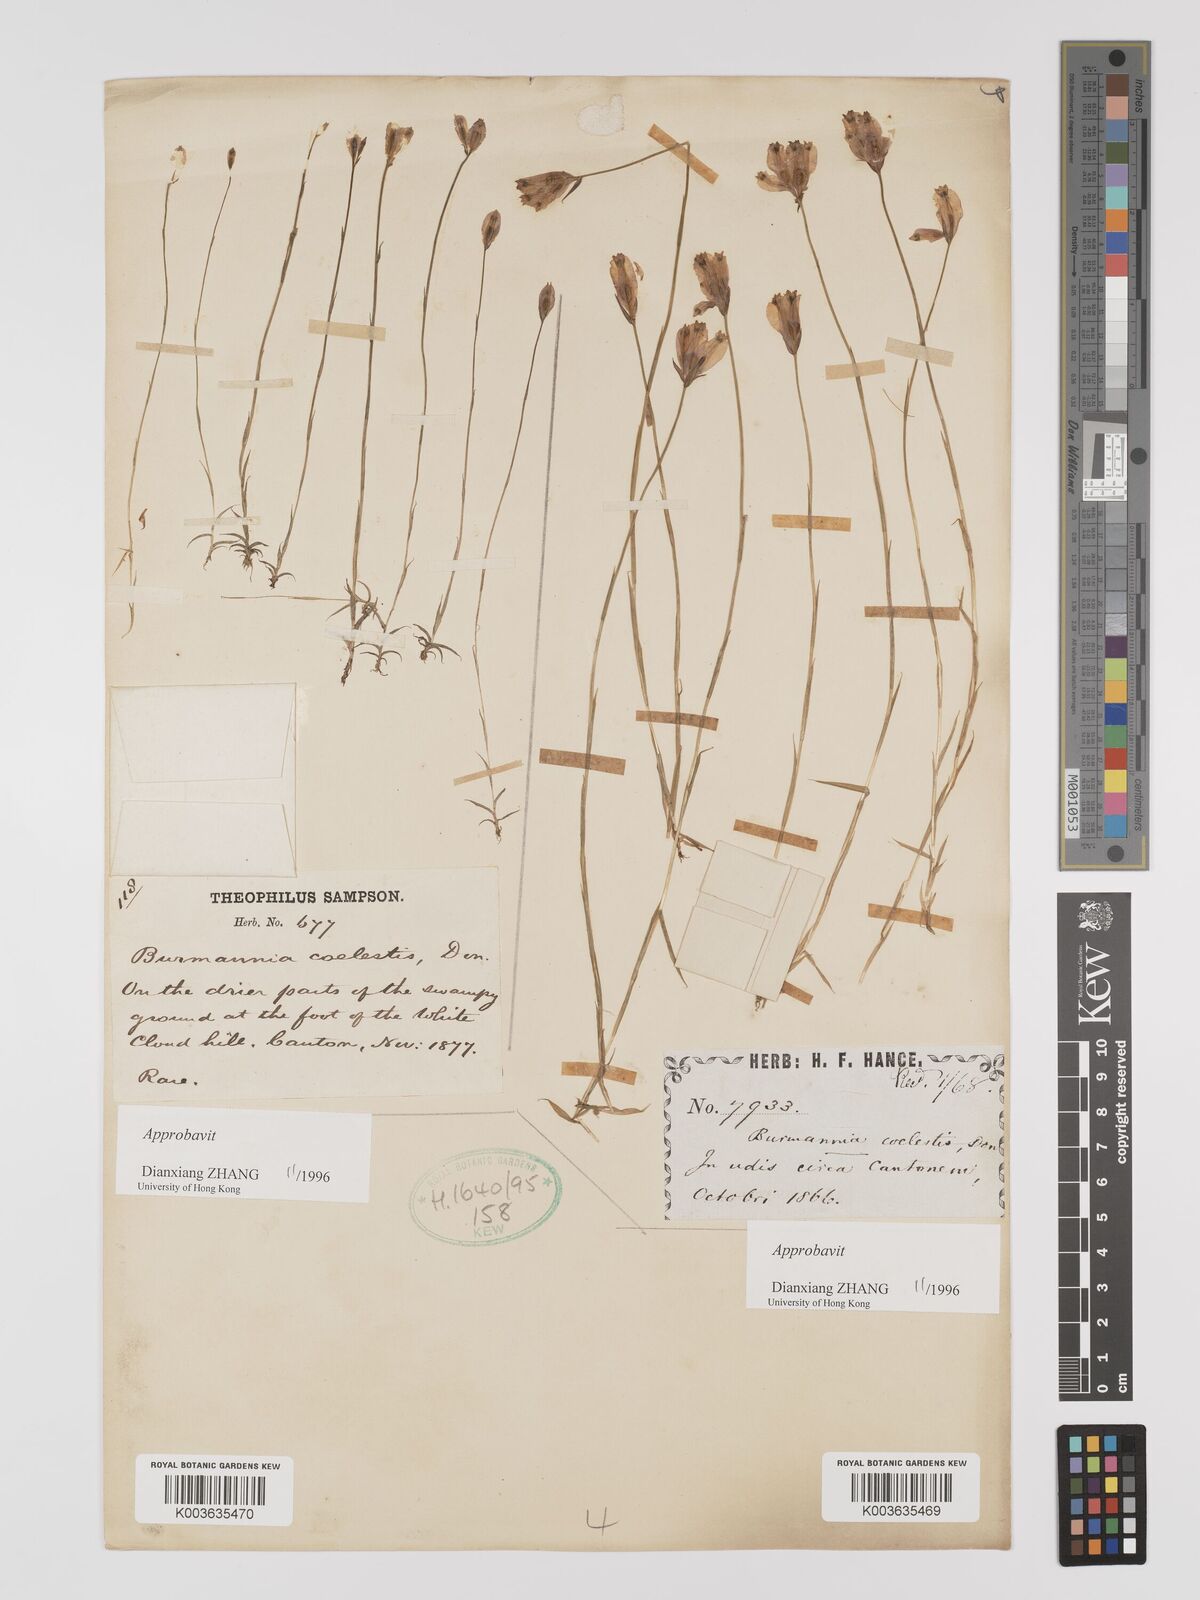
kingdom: Plantae
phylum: Tracheophyta
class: Liliopsida
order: Dioscoreales
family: Burmanniaceae
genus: Burmannia
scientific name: Burmannia coelestis
